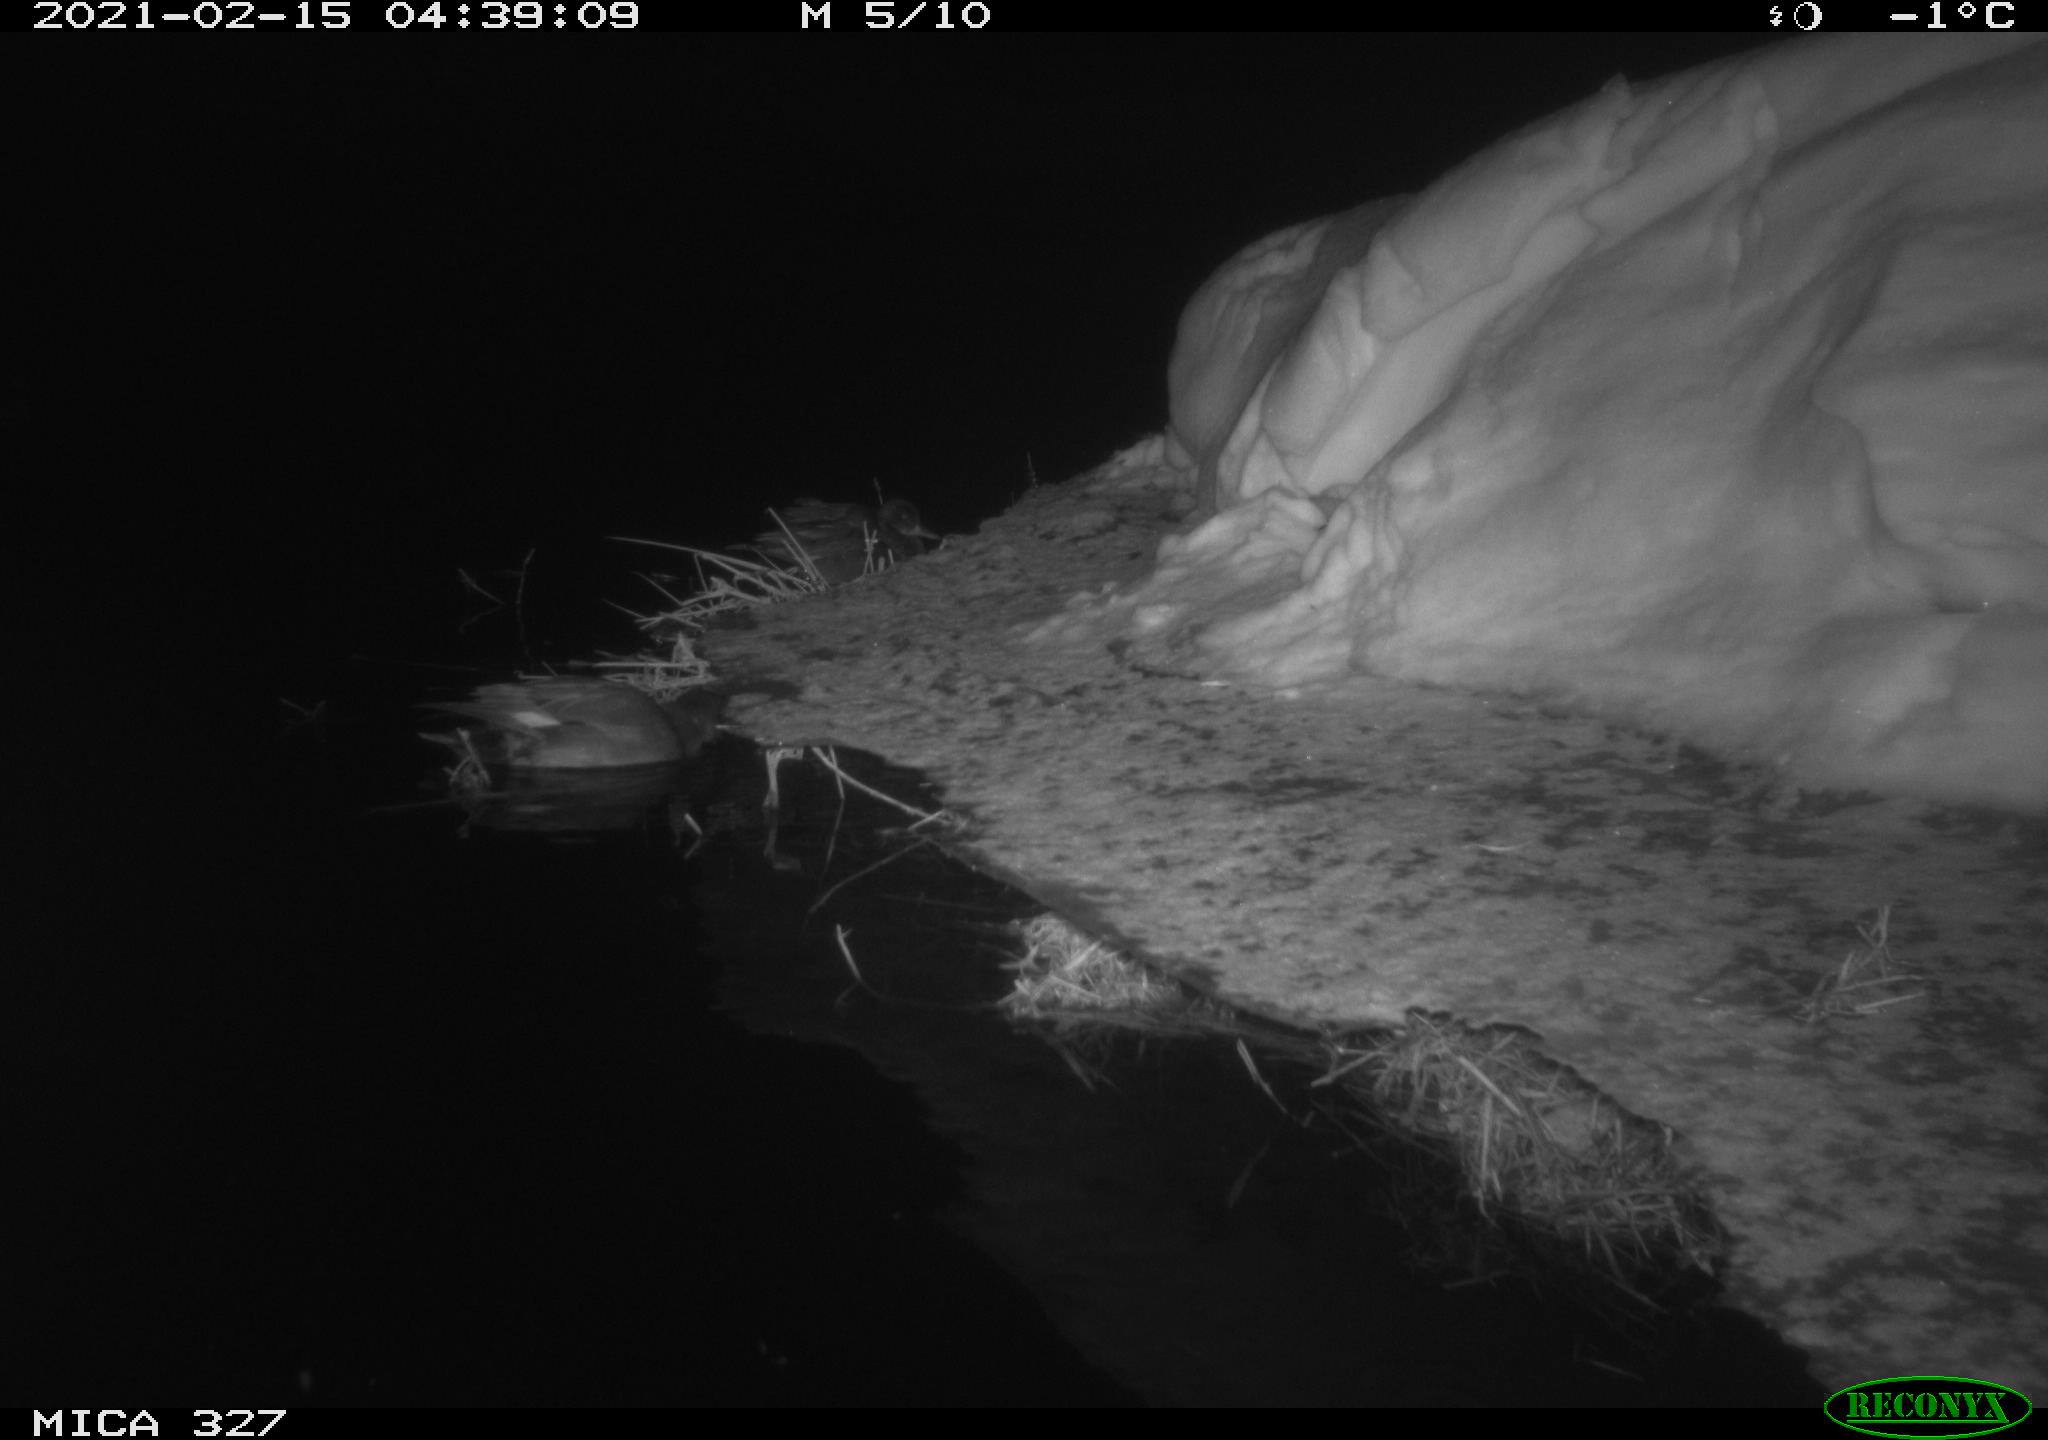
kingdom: Animalia
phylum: Chordata
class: Aves
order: Anseriformes
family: Anatidae
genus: Anas
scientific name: Anas
